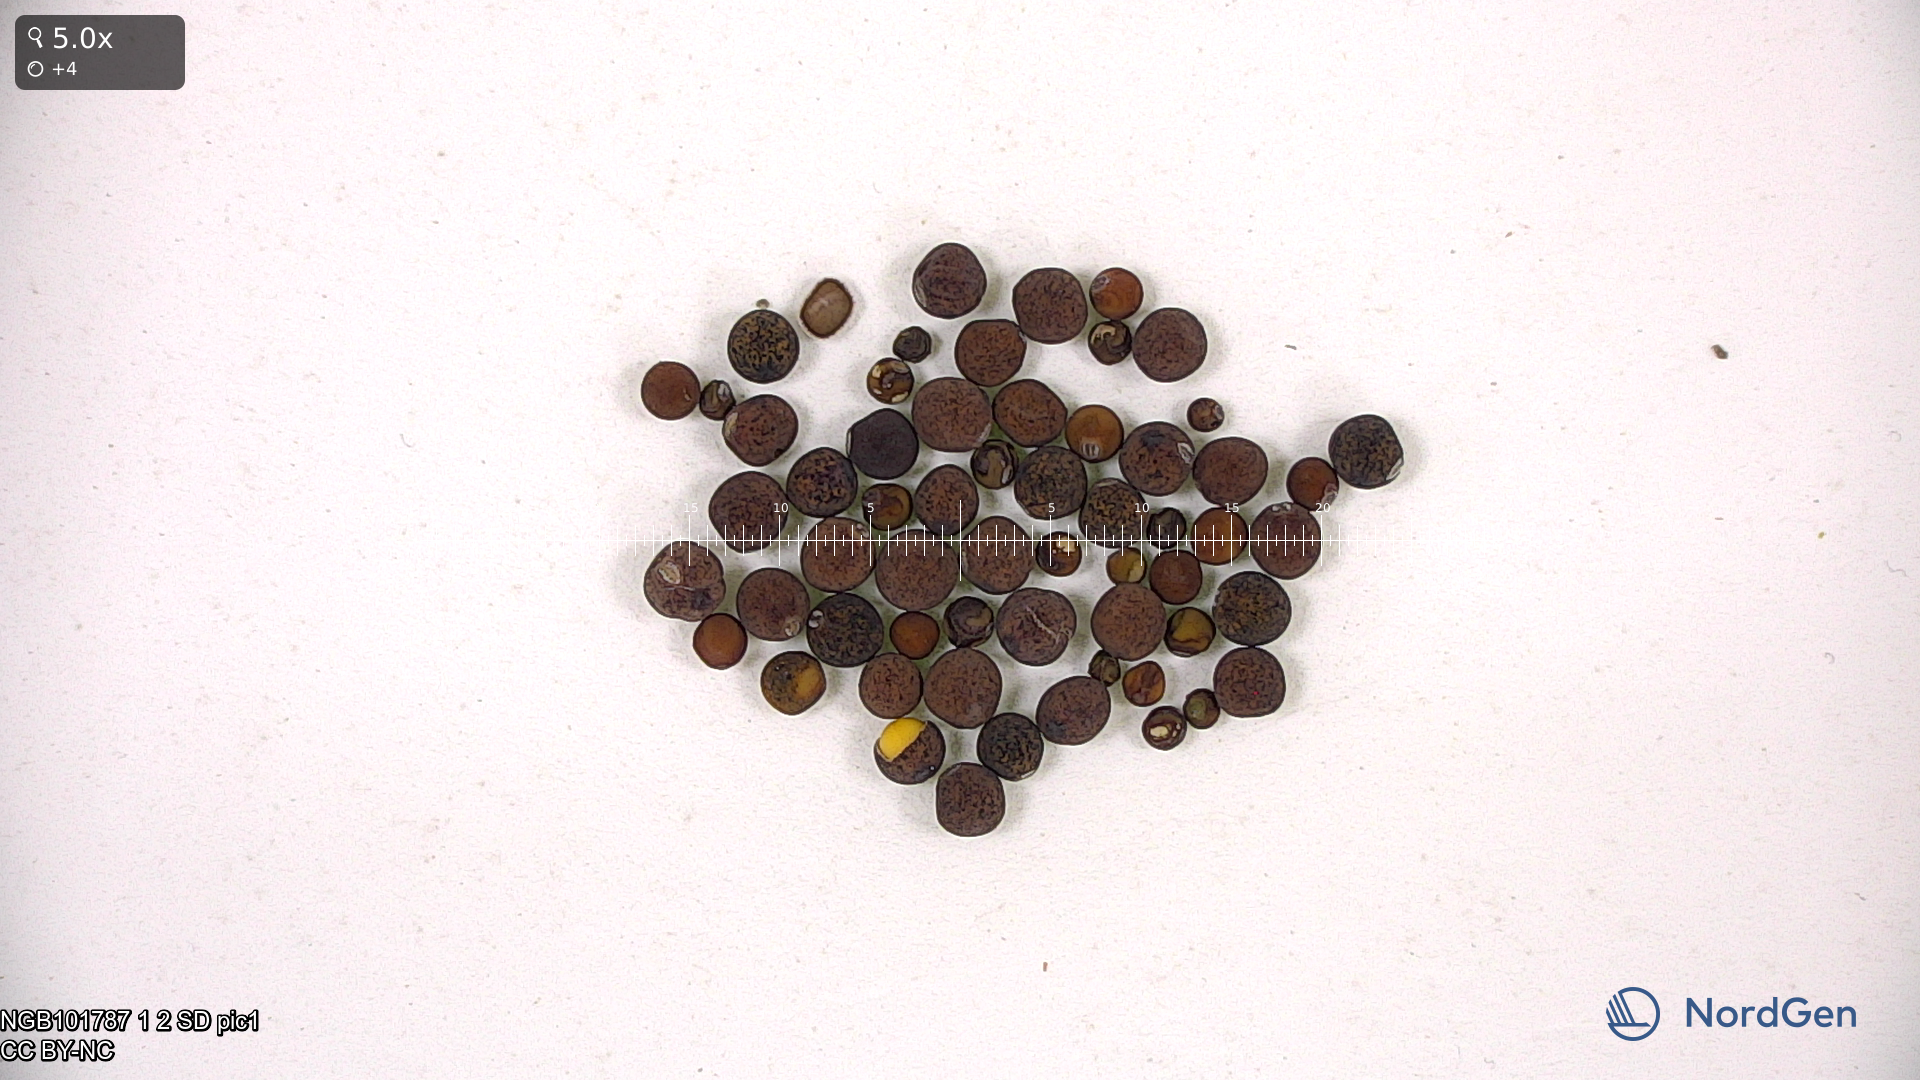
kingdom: Plantae
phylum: Tracheophyta
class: Magnoliopsida
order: Fabales
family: Fabaceae
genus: Lathyrus
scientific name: Lathyrus fulvus
